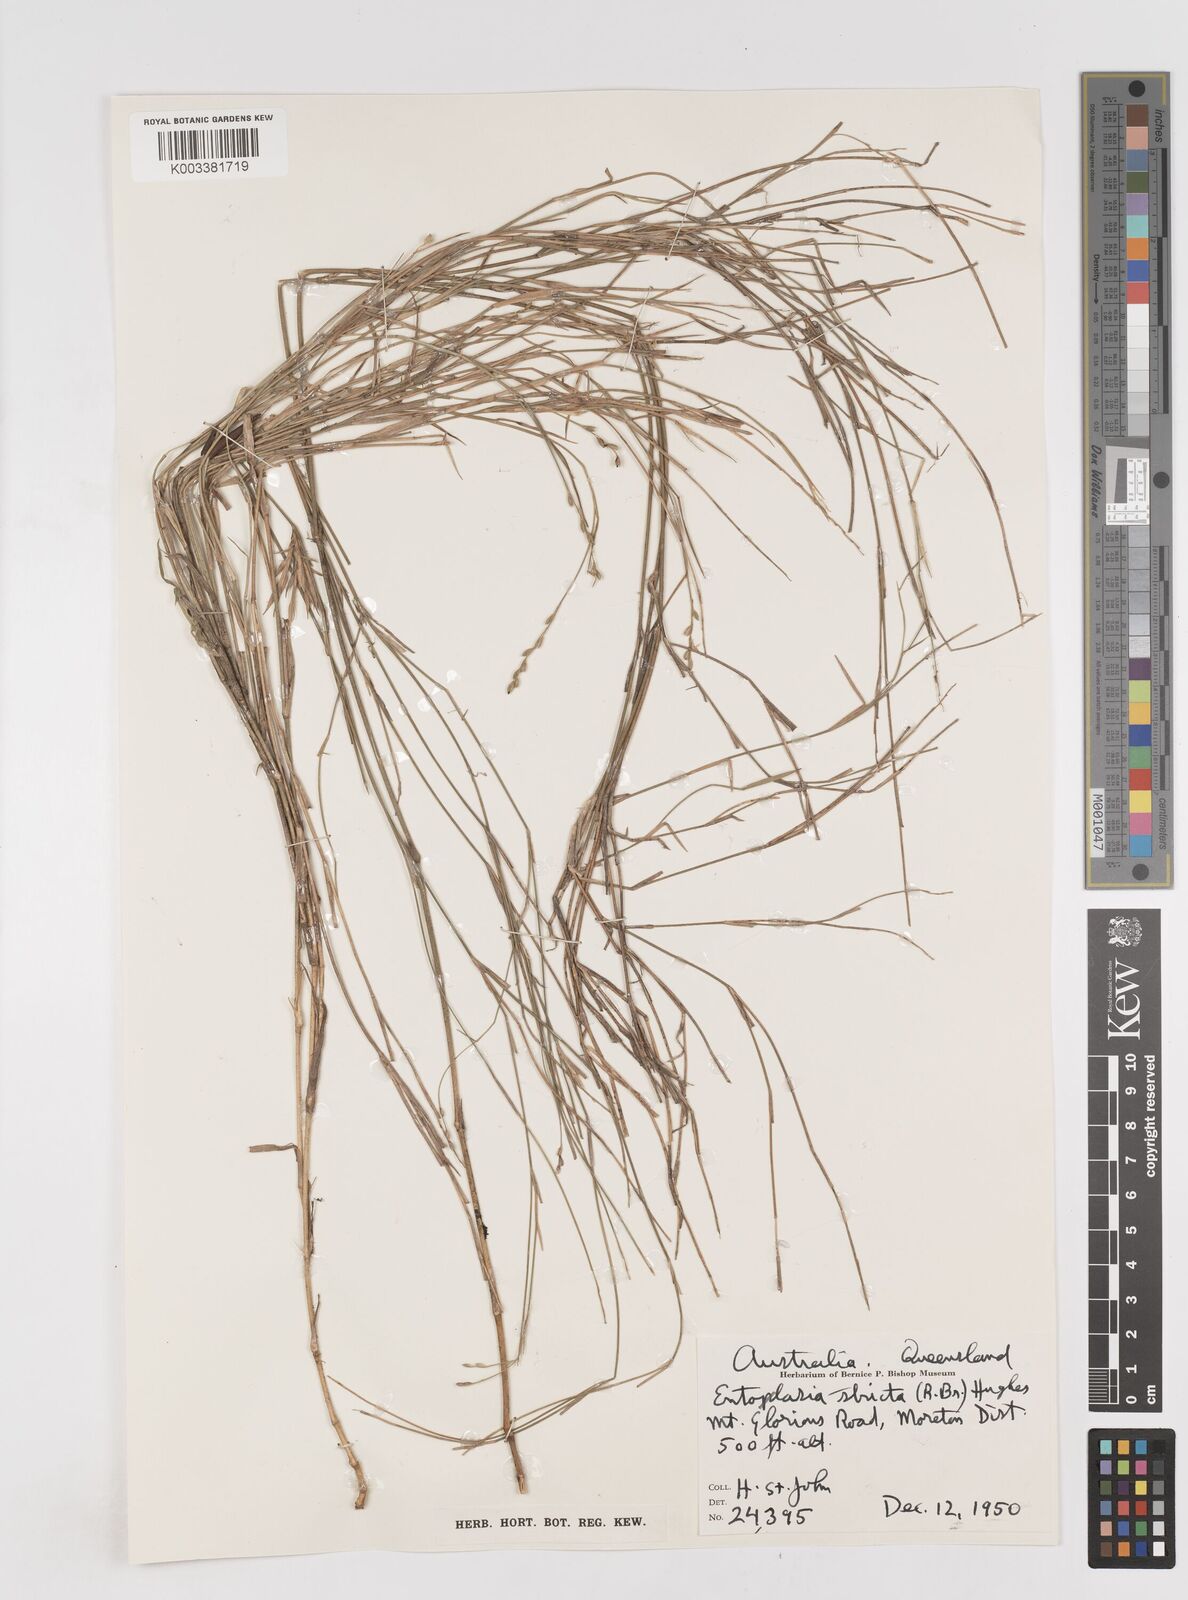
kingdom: Plantae
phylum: Tracheophyta
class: Liliopsida
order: Poales
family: Poaceae
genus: Entolasia
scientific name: Entolasia stricta
